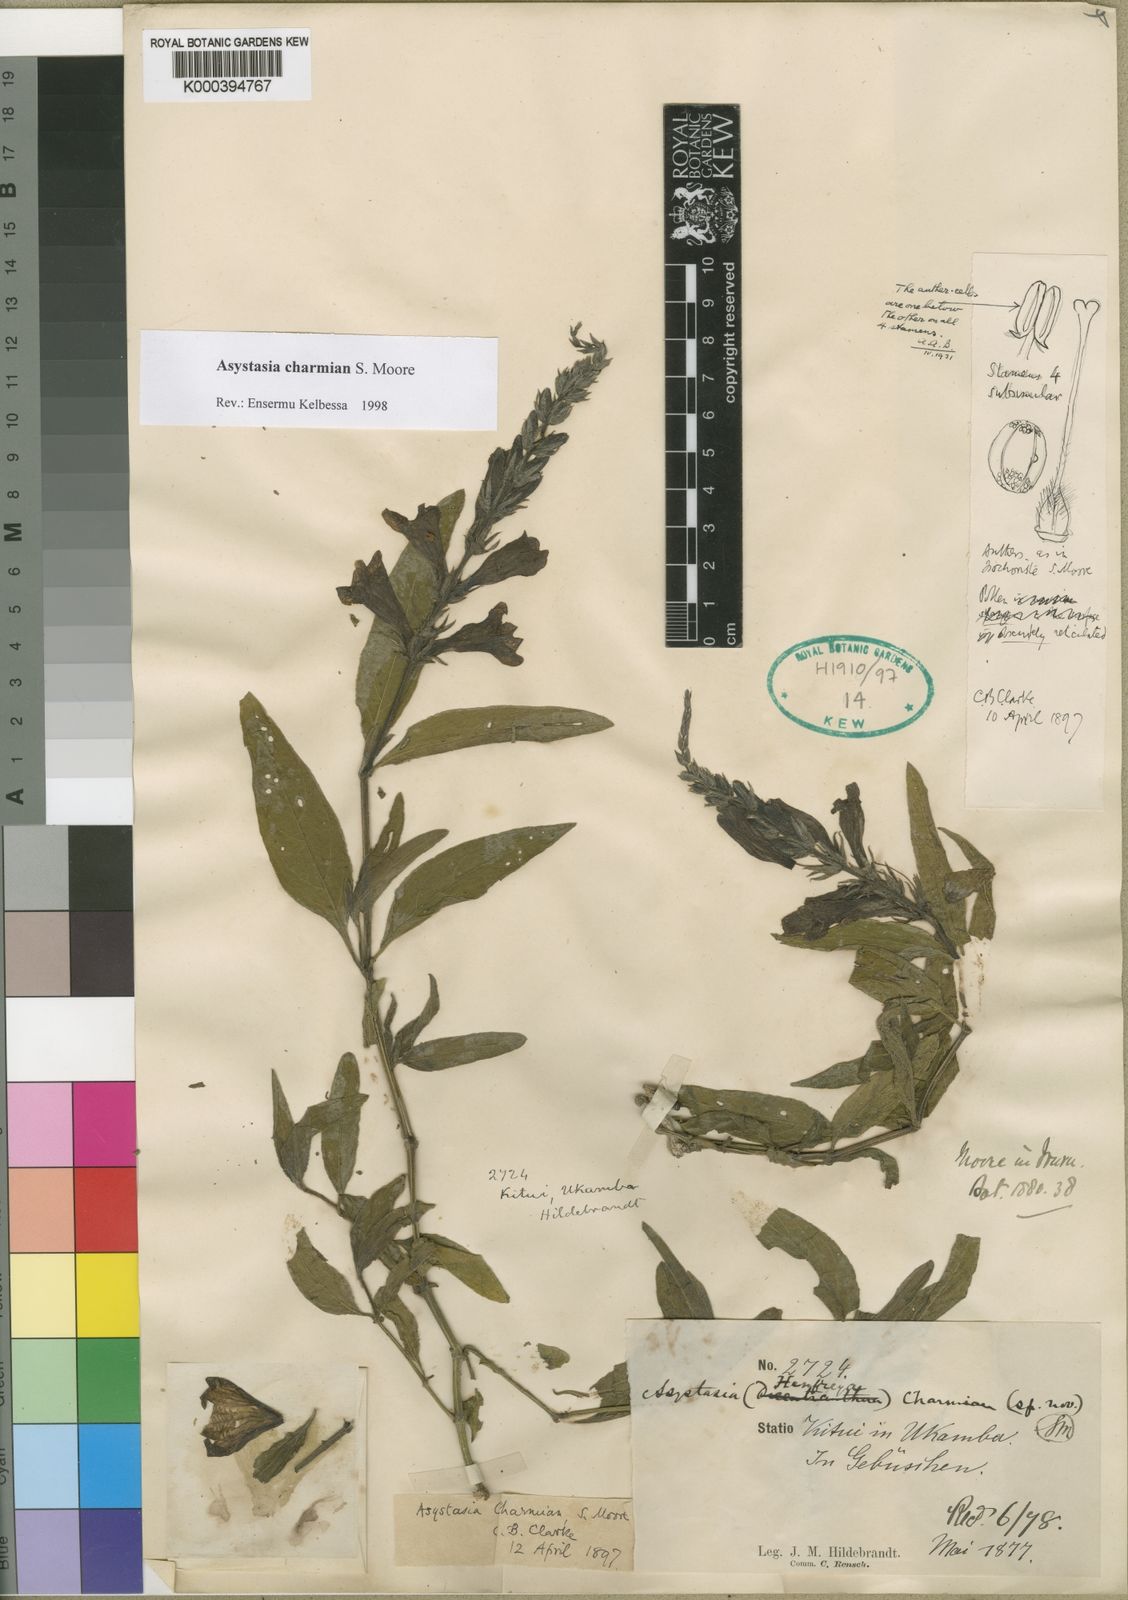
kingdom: Plantae
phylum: Tracheophyta
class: Magnoliopsida
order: Lamiales
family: Acanthaceae
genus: Asystasia
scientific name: Asystasia charmian
